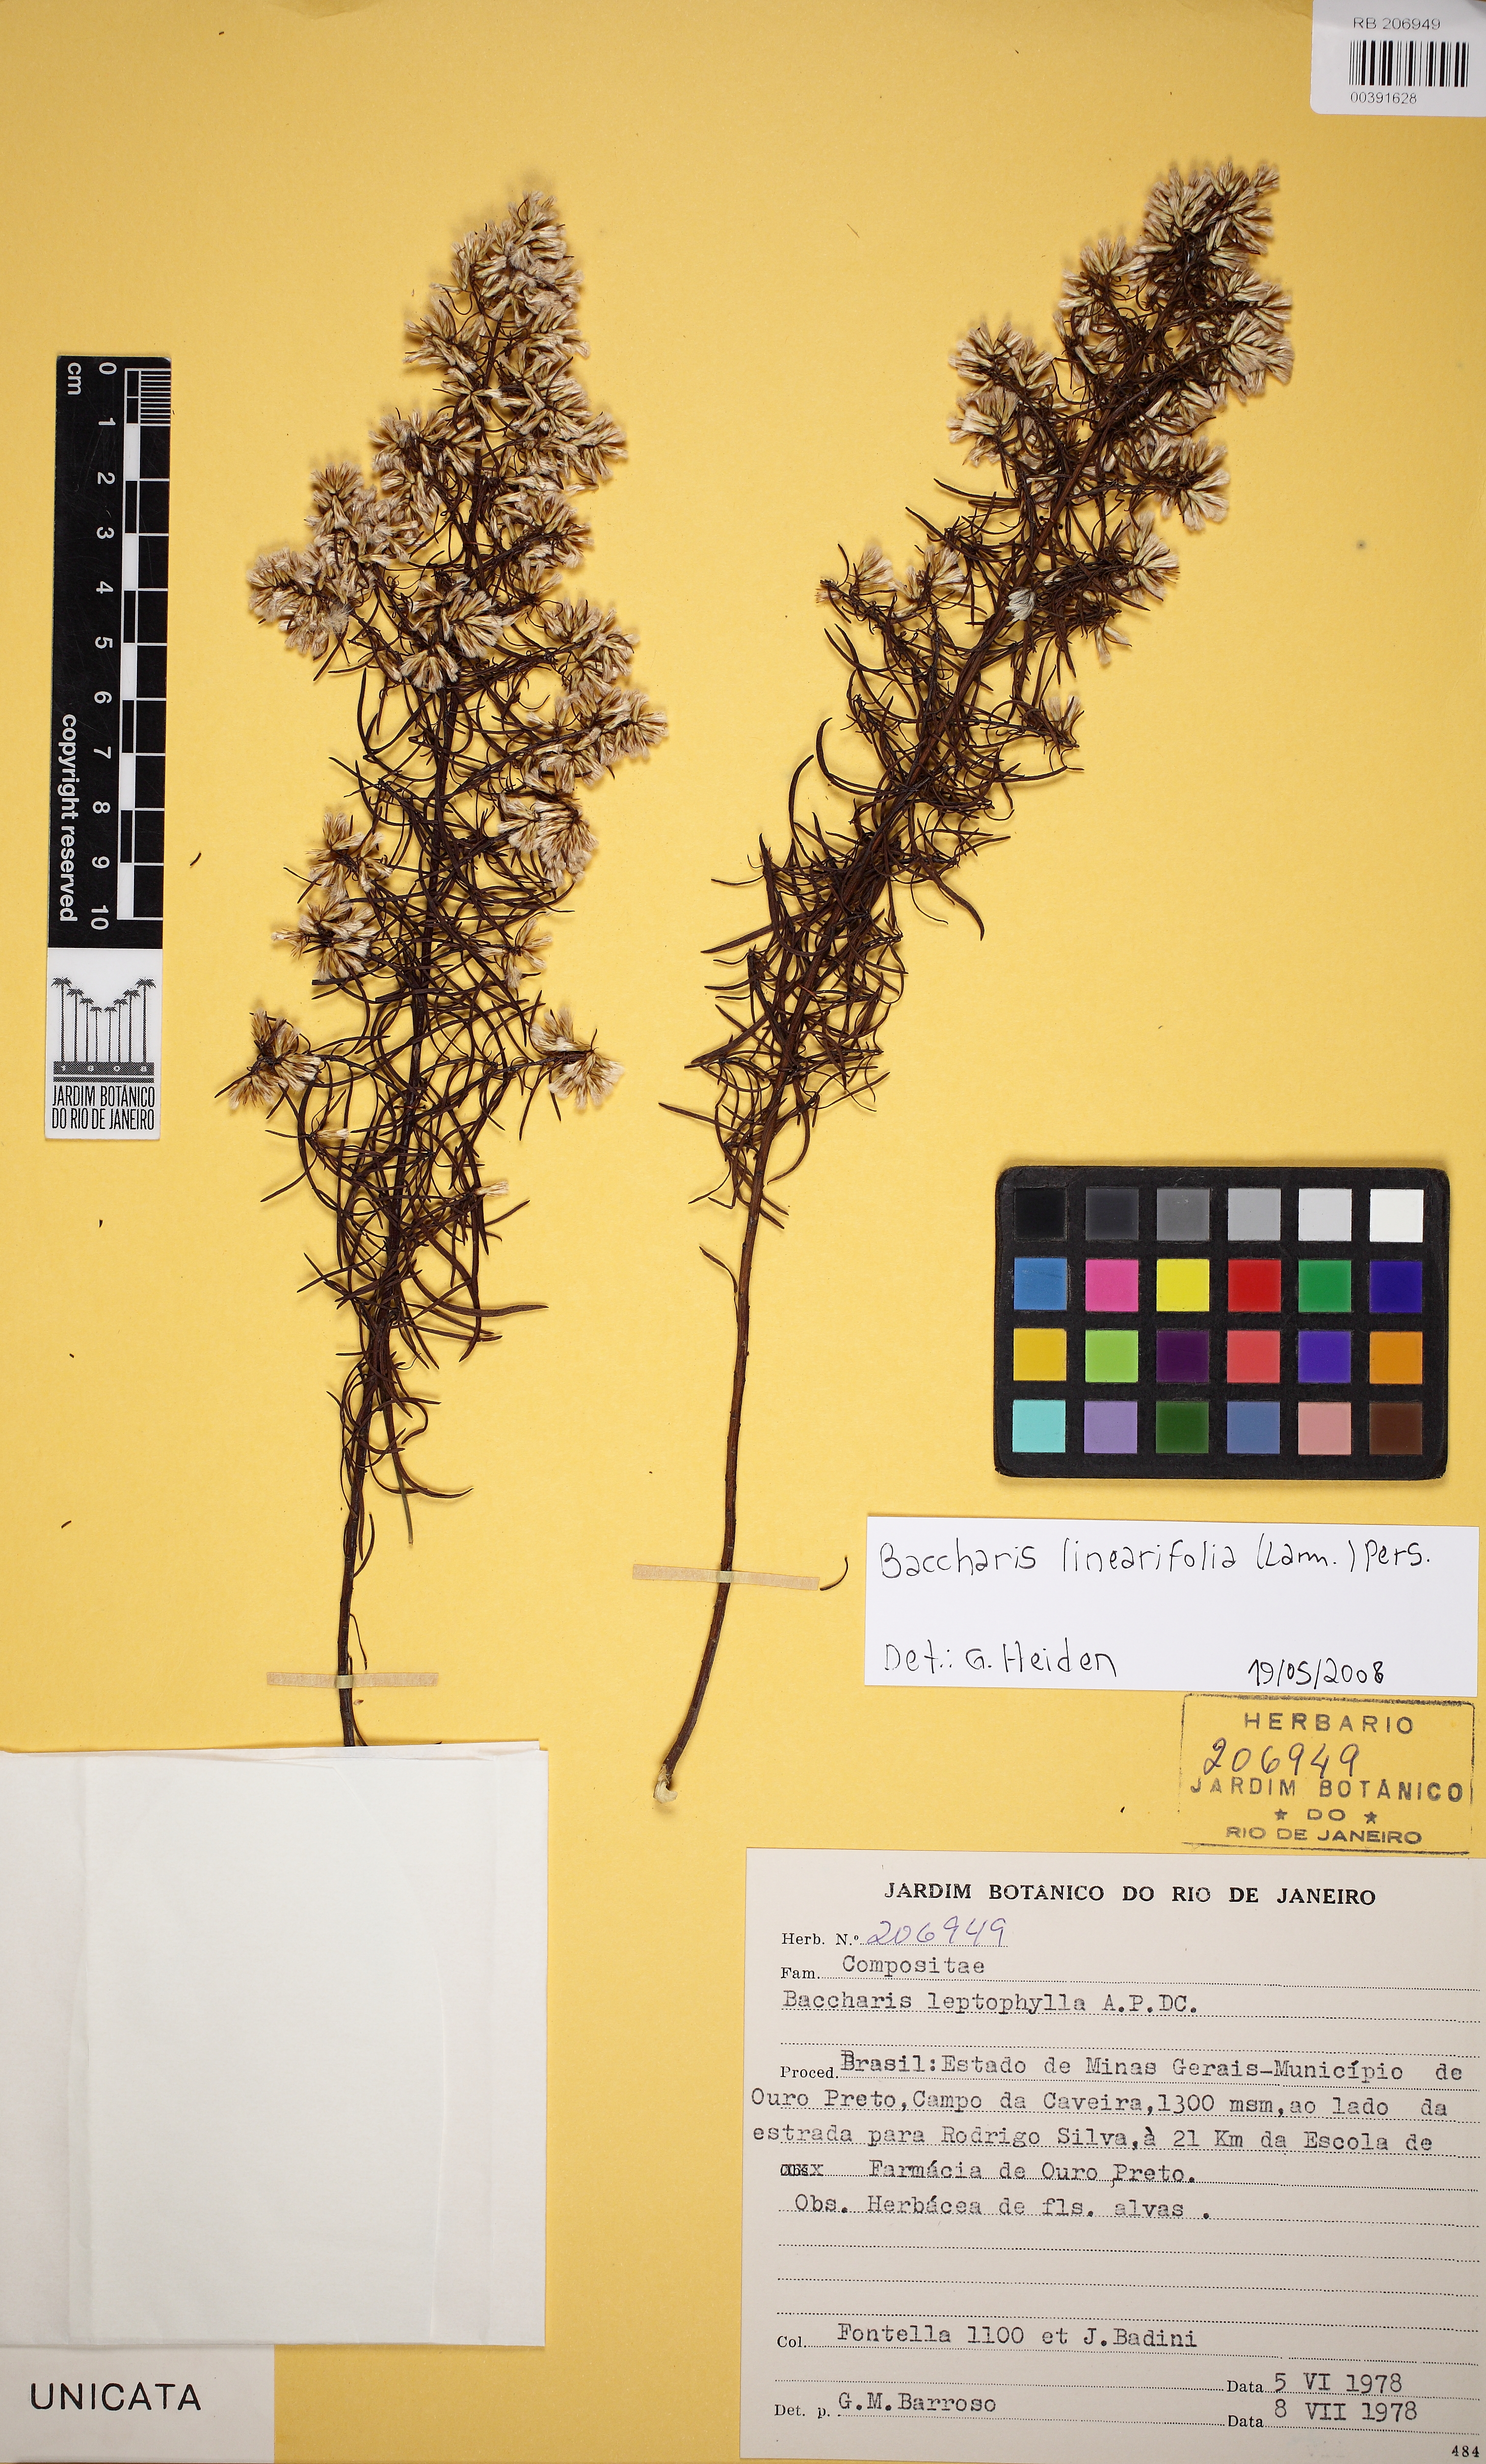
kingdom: Plantae
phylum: Tracheophyta
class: Magnoliopsida
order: Asterales
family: Asteraceae
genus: Baccharis
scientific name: Baccharis linearifolia
